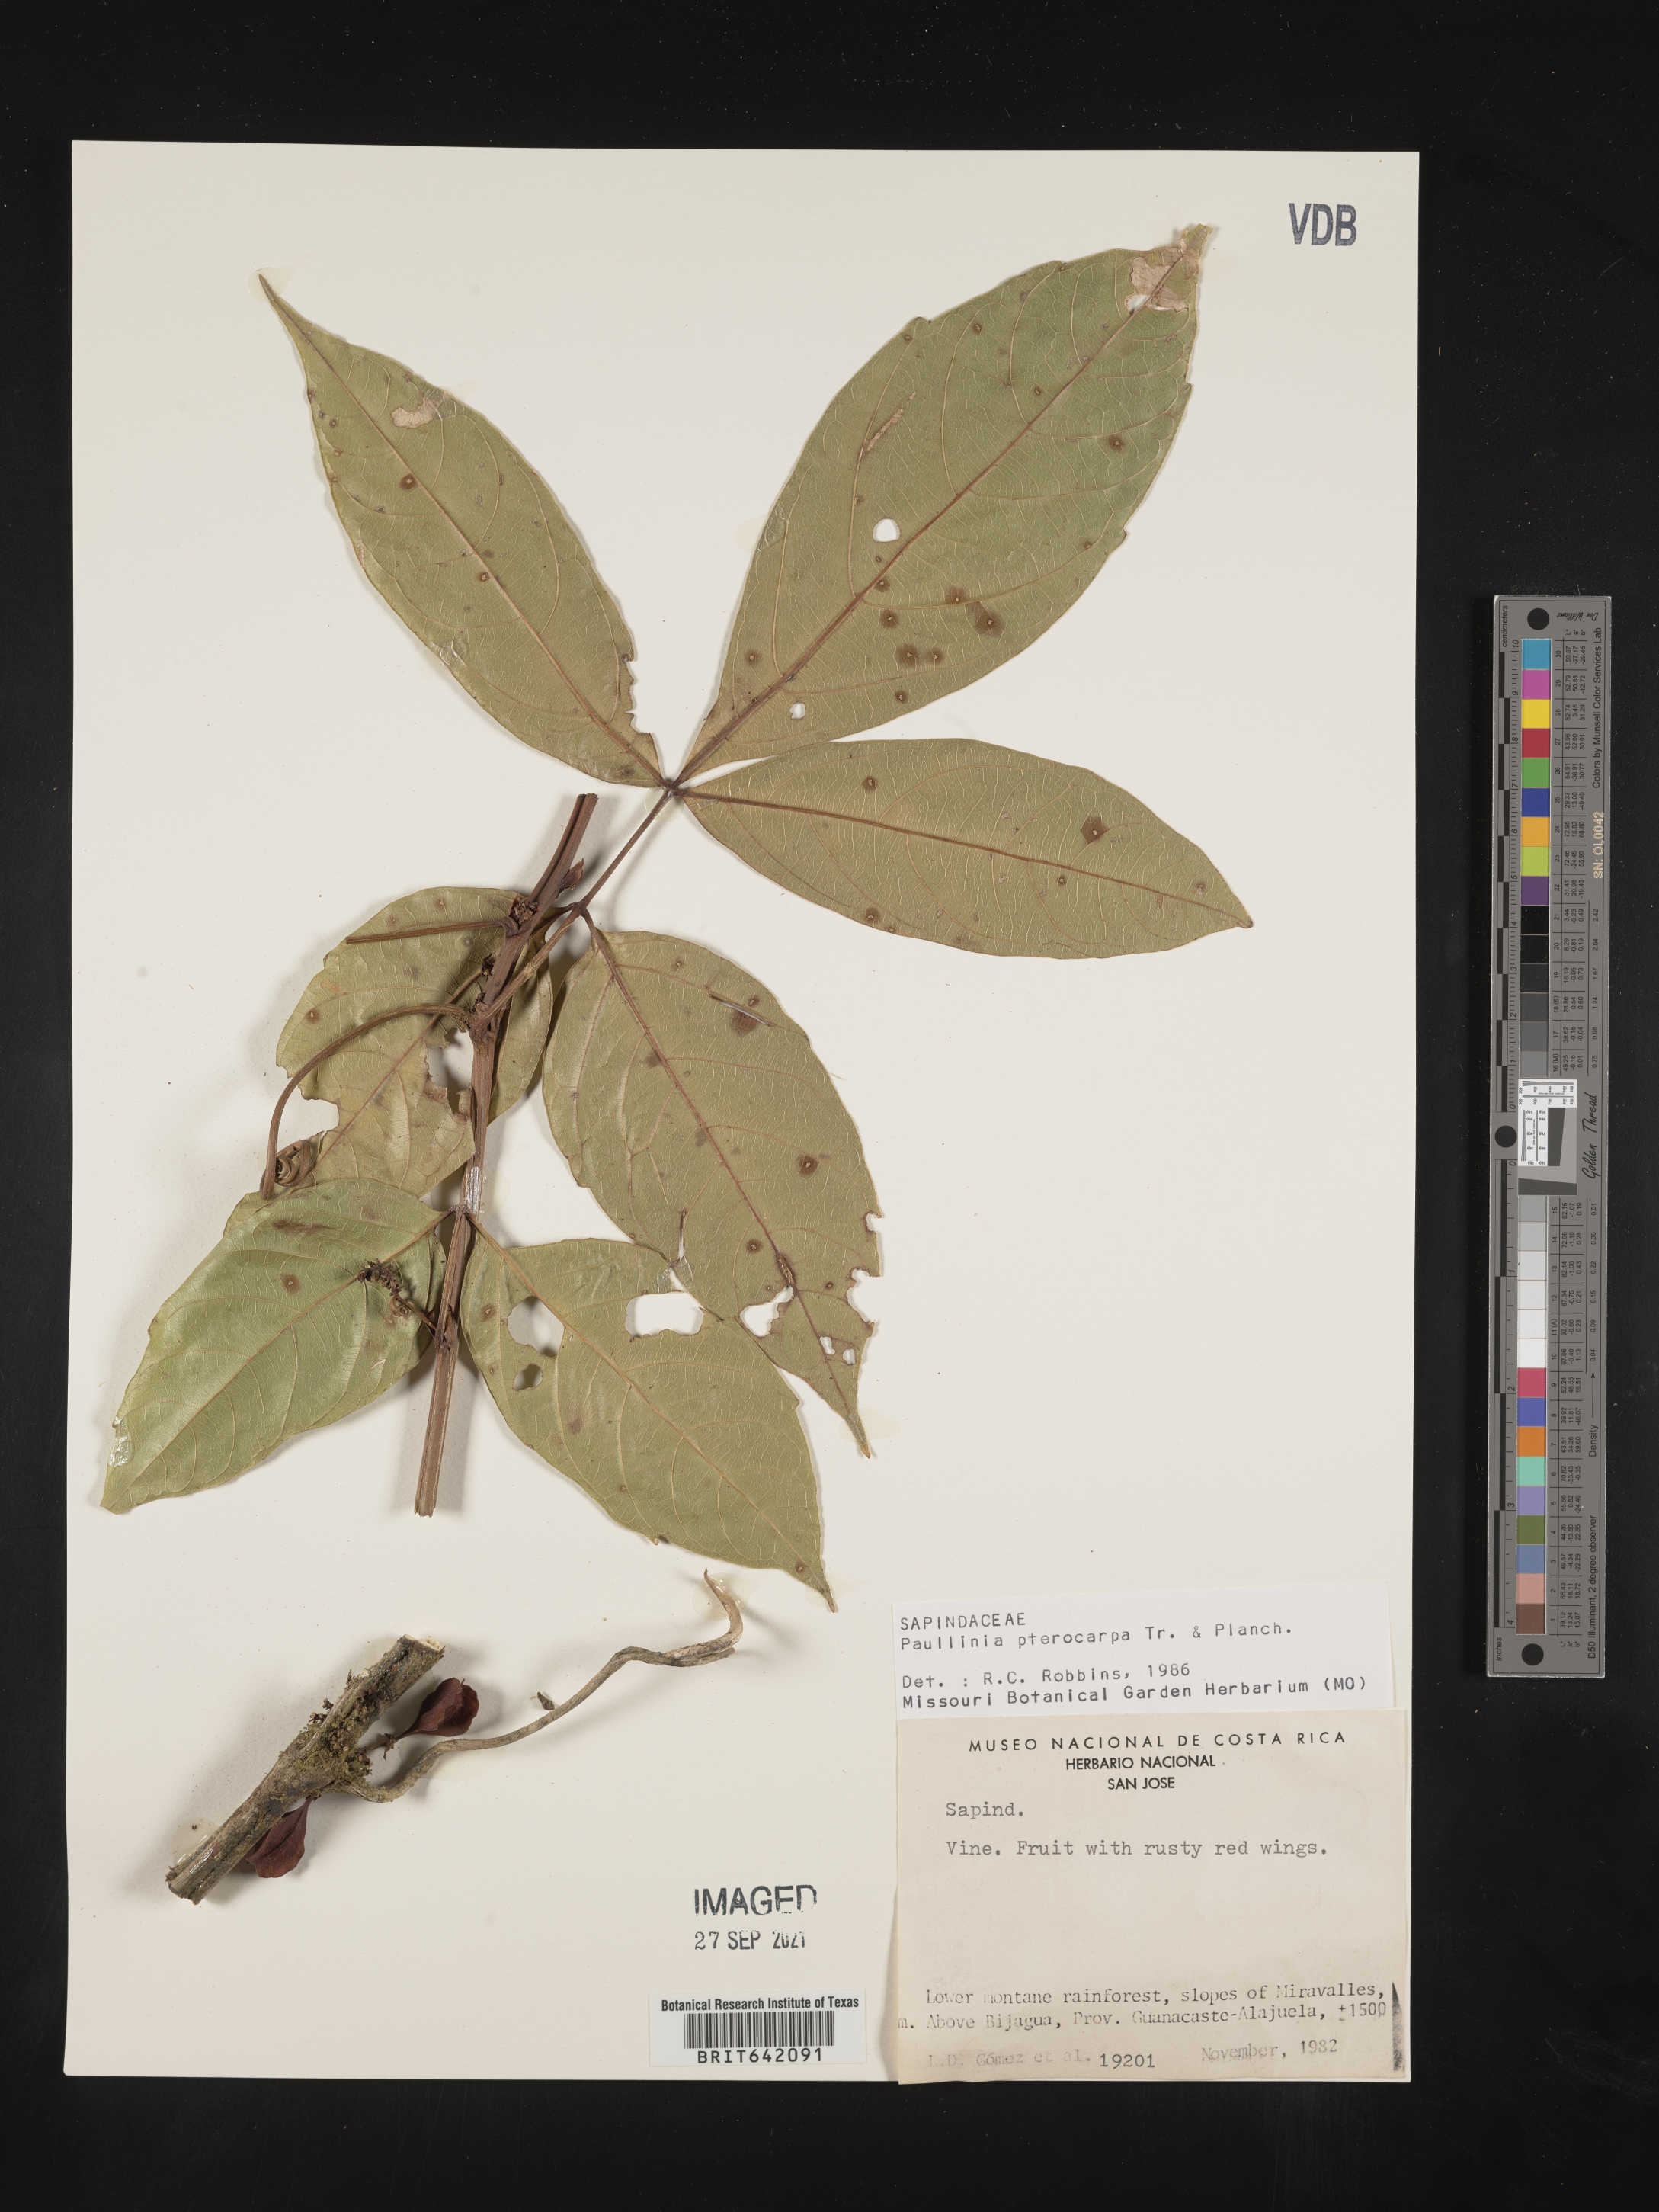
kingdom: Plantae
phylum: Tracheophyta
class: Magnoliopsida
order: Sapindales
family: Sapindaceae
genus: Paullinia
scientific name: Paullinia
